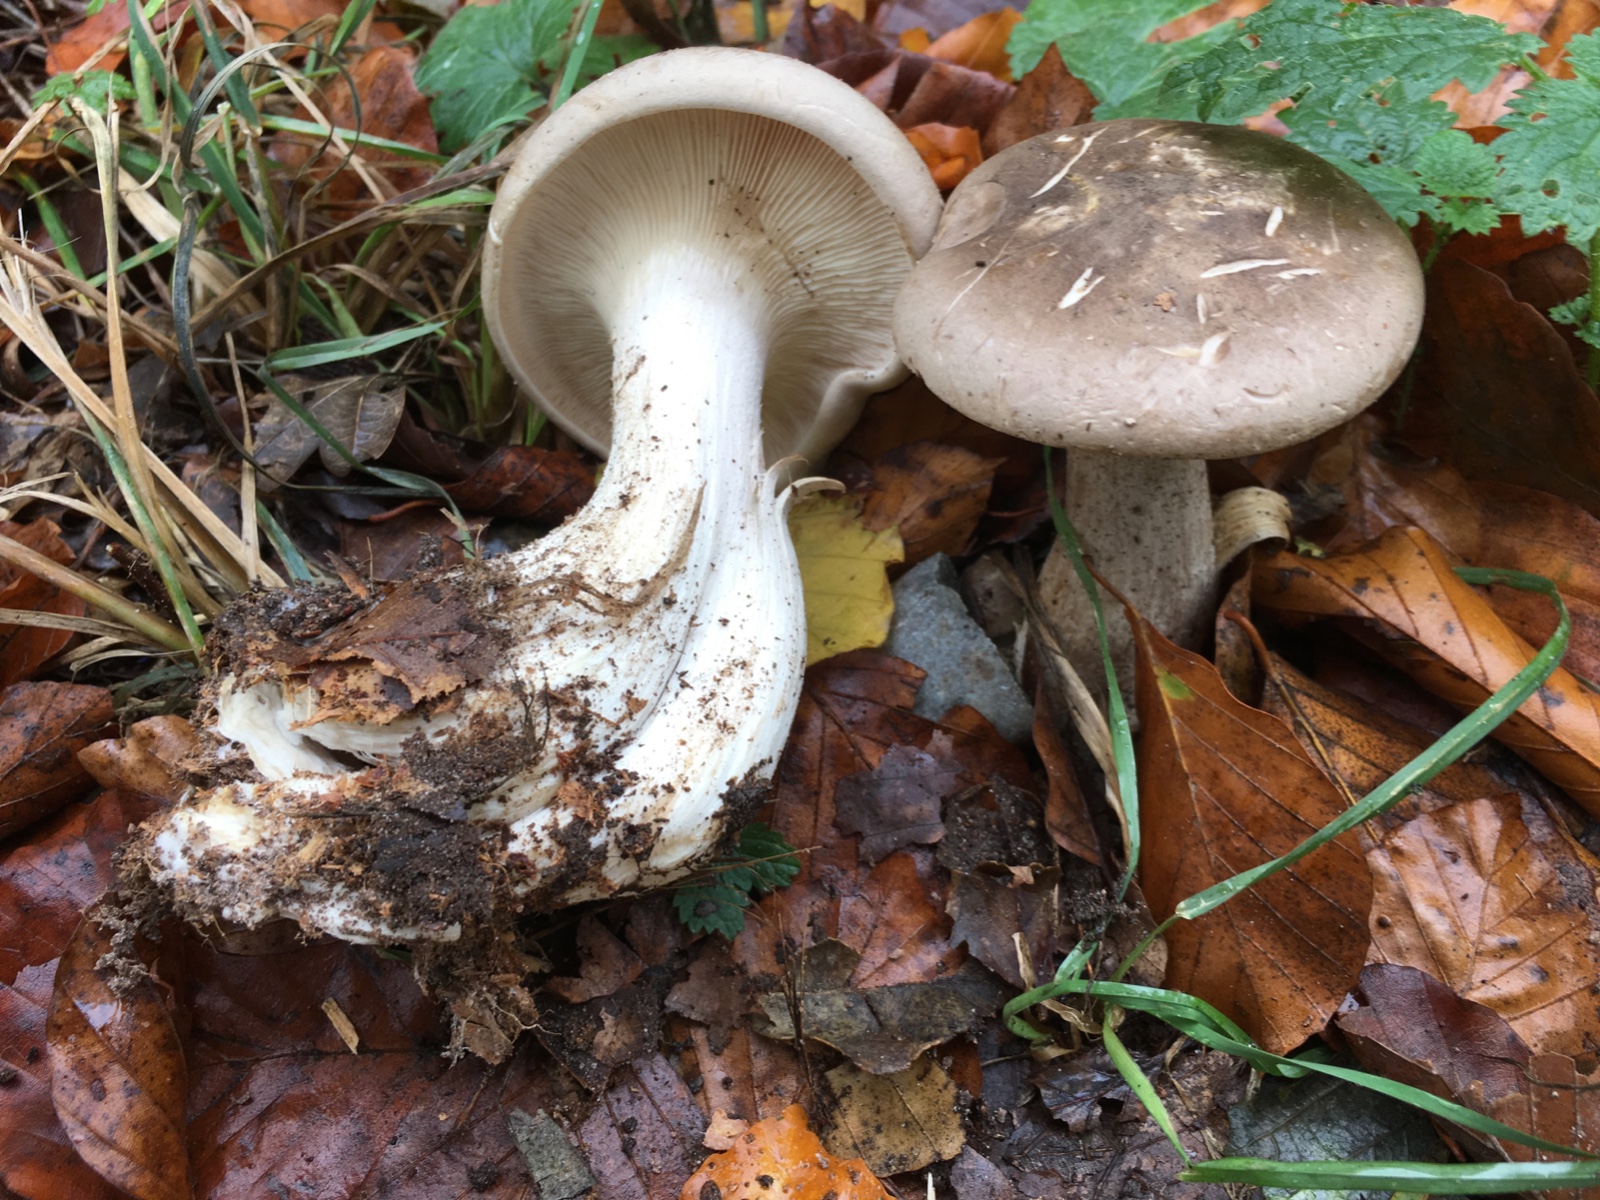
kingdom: Fungi
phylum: Basidiomycota
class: Agaricomycetes
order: Agaricales
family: Tricholomataceae
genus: Clitocybe
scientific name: Clitocybe nebularis
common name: tåge-tragthat
